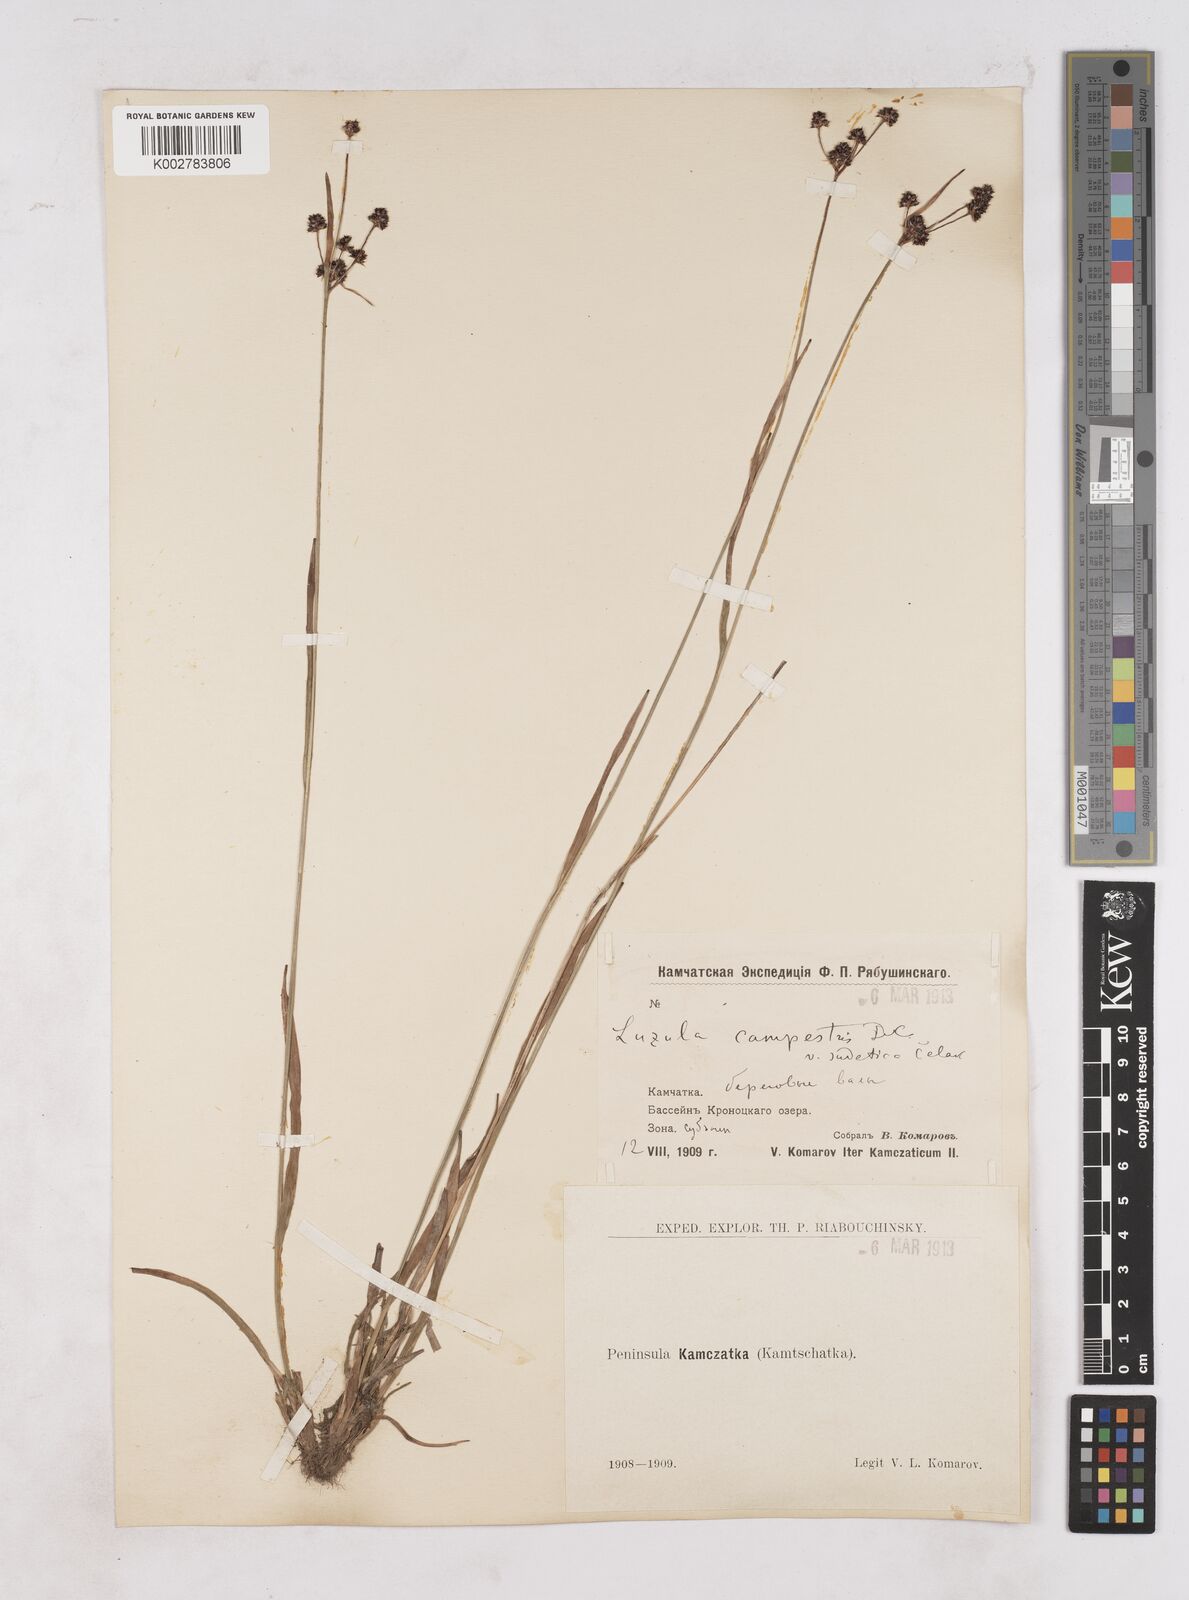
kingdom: Plantae
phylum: Tracheophyta
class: Liliopsida
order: Poales
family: Juncaceae
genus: Luzula
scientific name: Luzula campestris
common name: Field wood-rush
